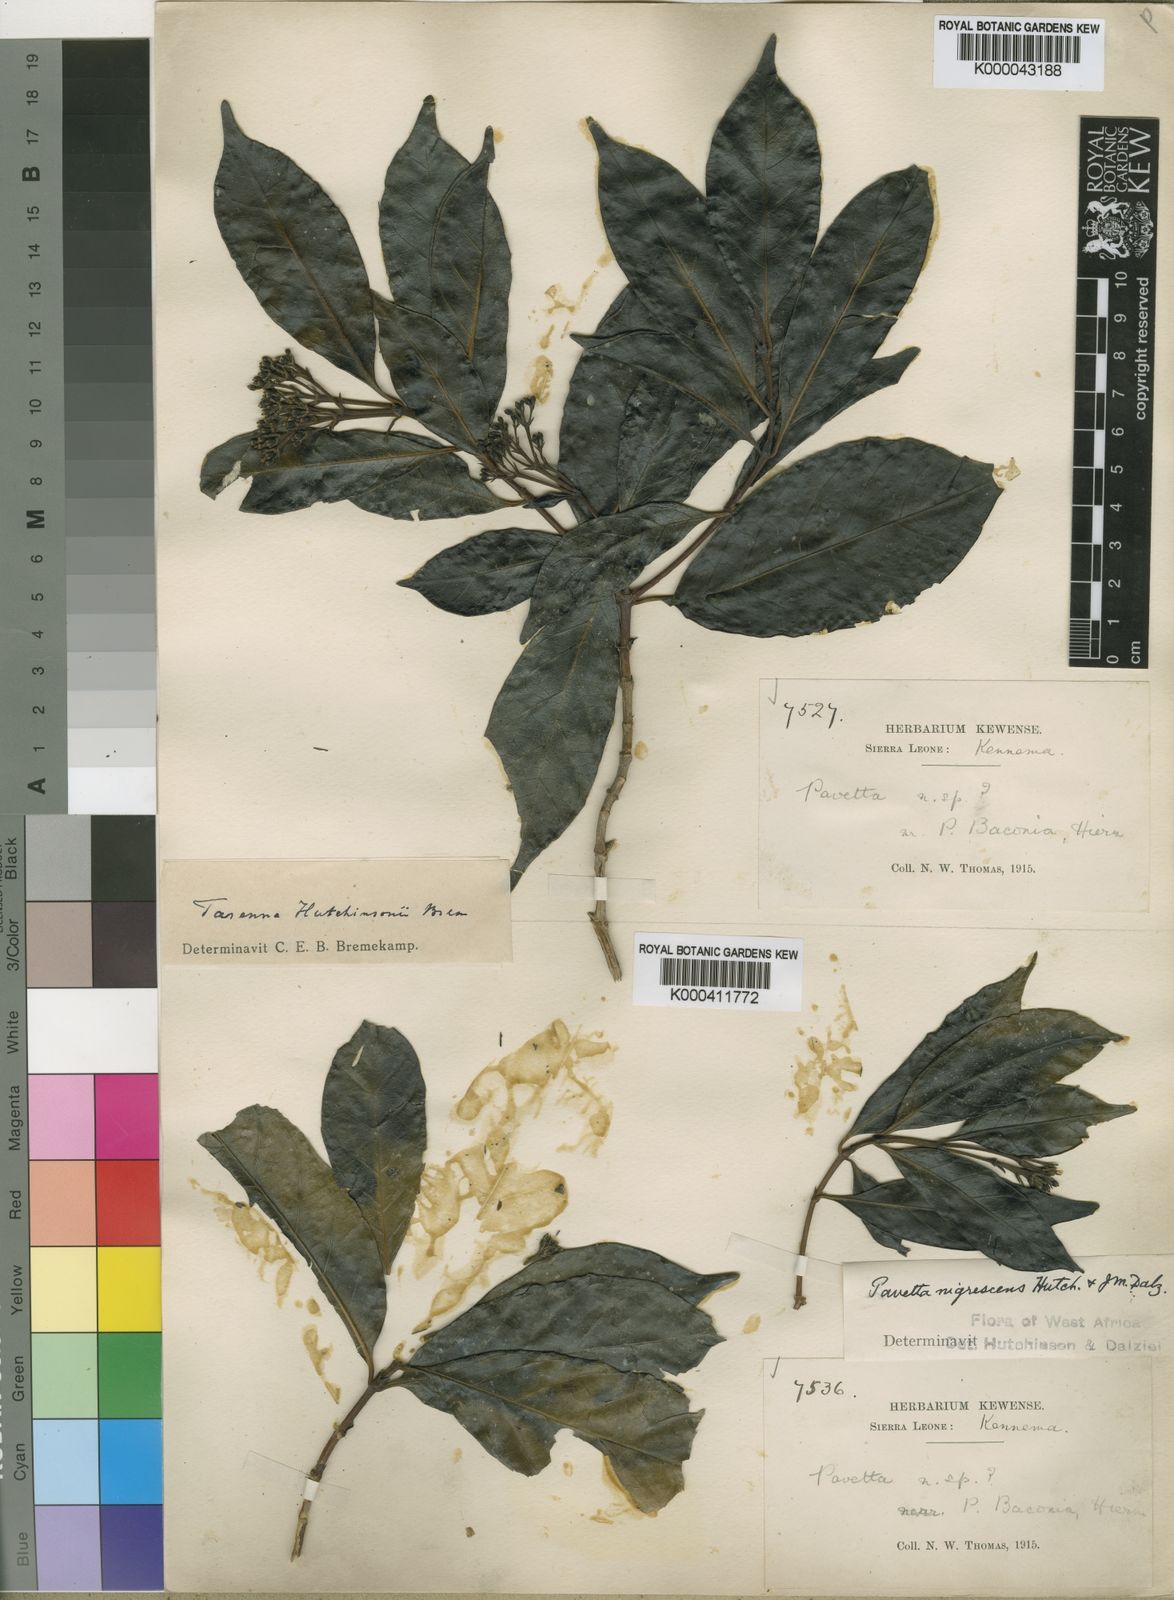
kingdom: Plantae
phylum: Tracheophyta
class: Magnoliopsida
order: Gentianales
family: Rubiaceae
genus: Tarenna
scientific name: Tarenna hutchinsonii
